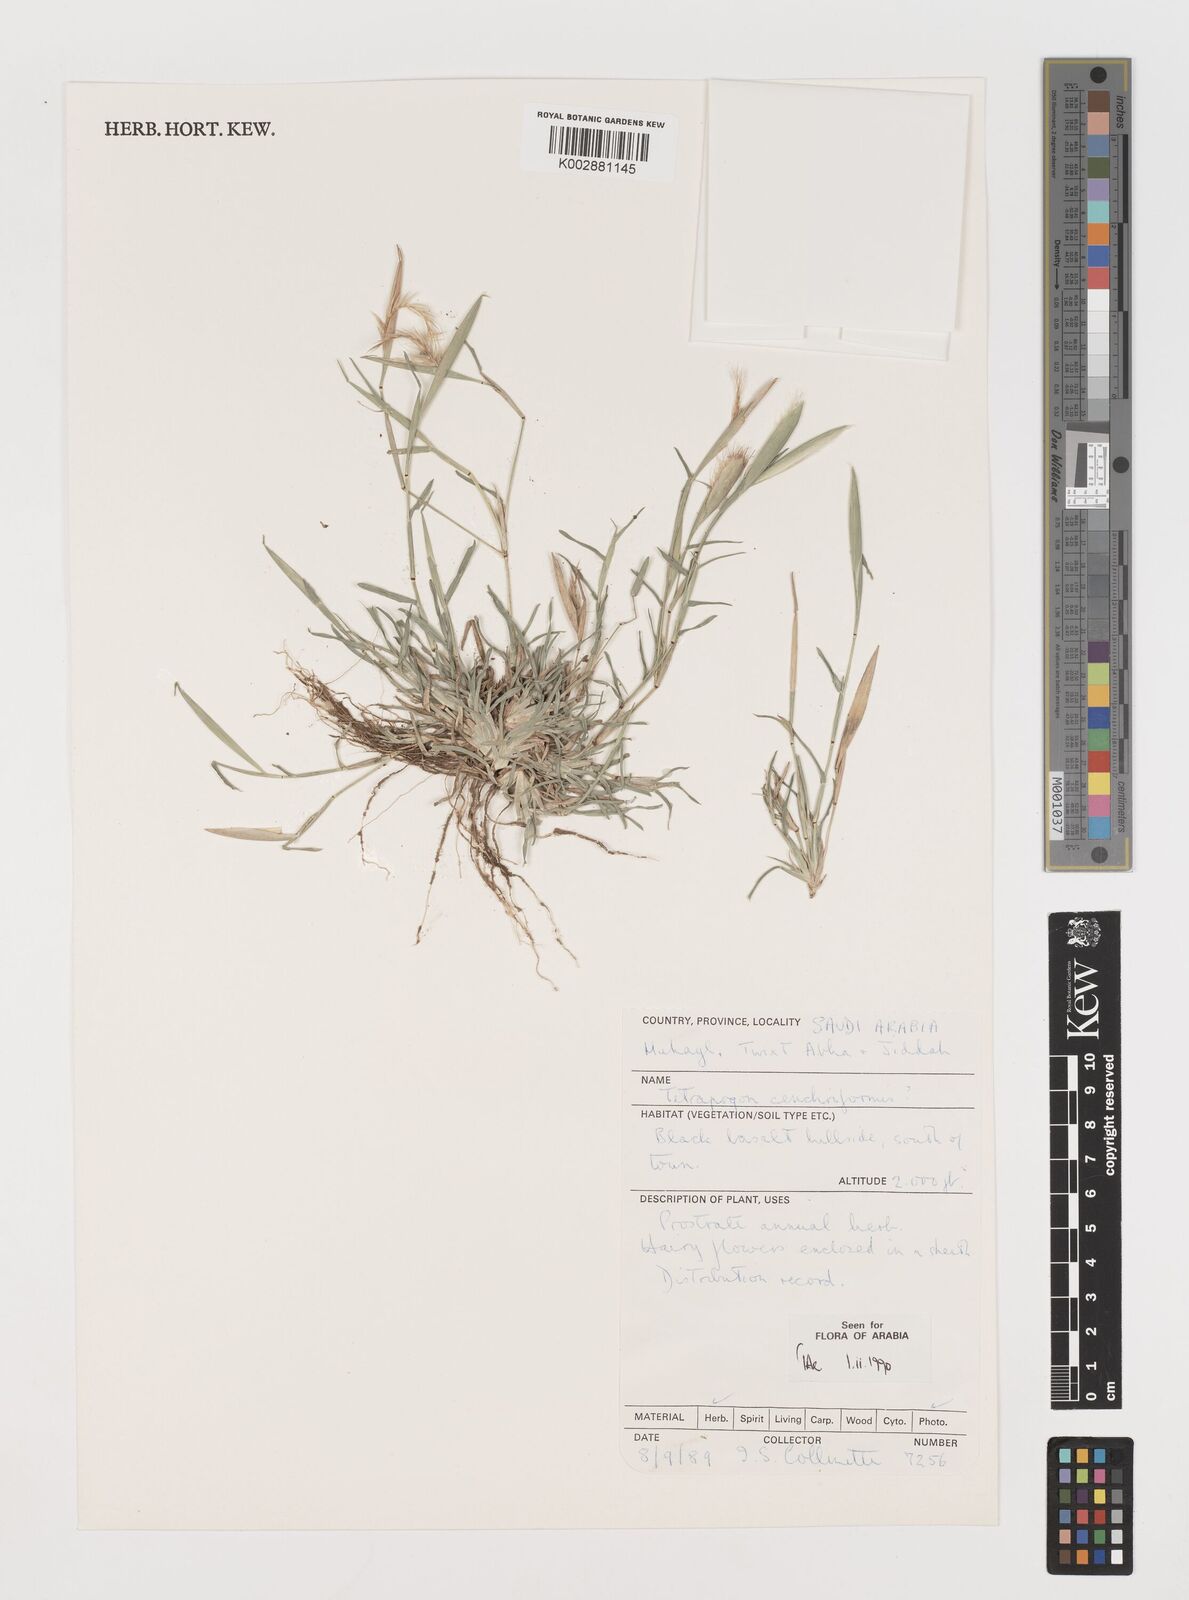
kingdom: Plantae
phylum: Tracheophyta
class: Liliopsida
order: Poales
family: Poaceae
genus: Tetrapogon
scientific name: Tetrapogon cenchriformis
